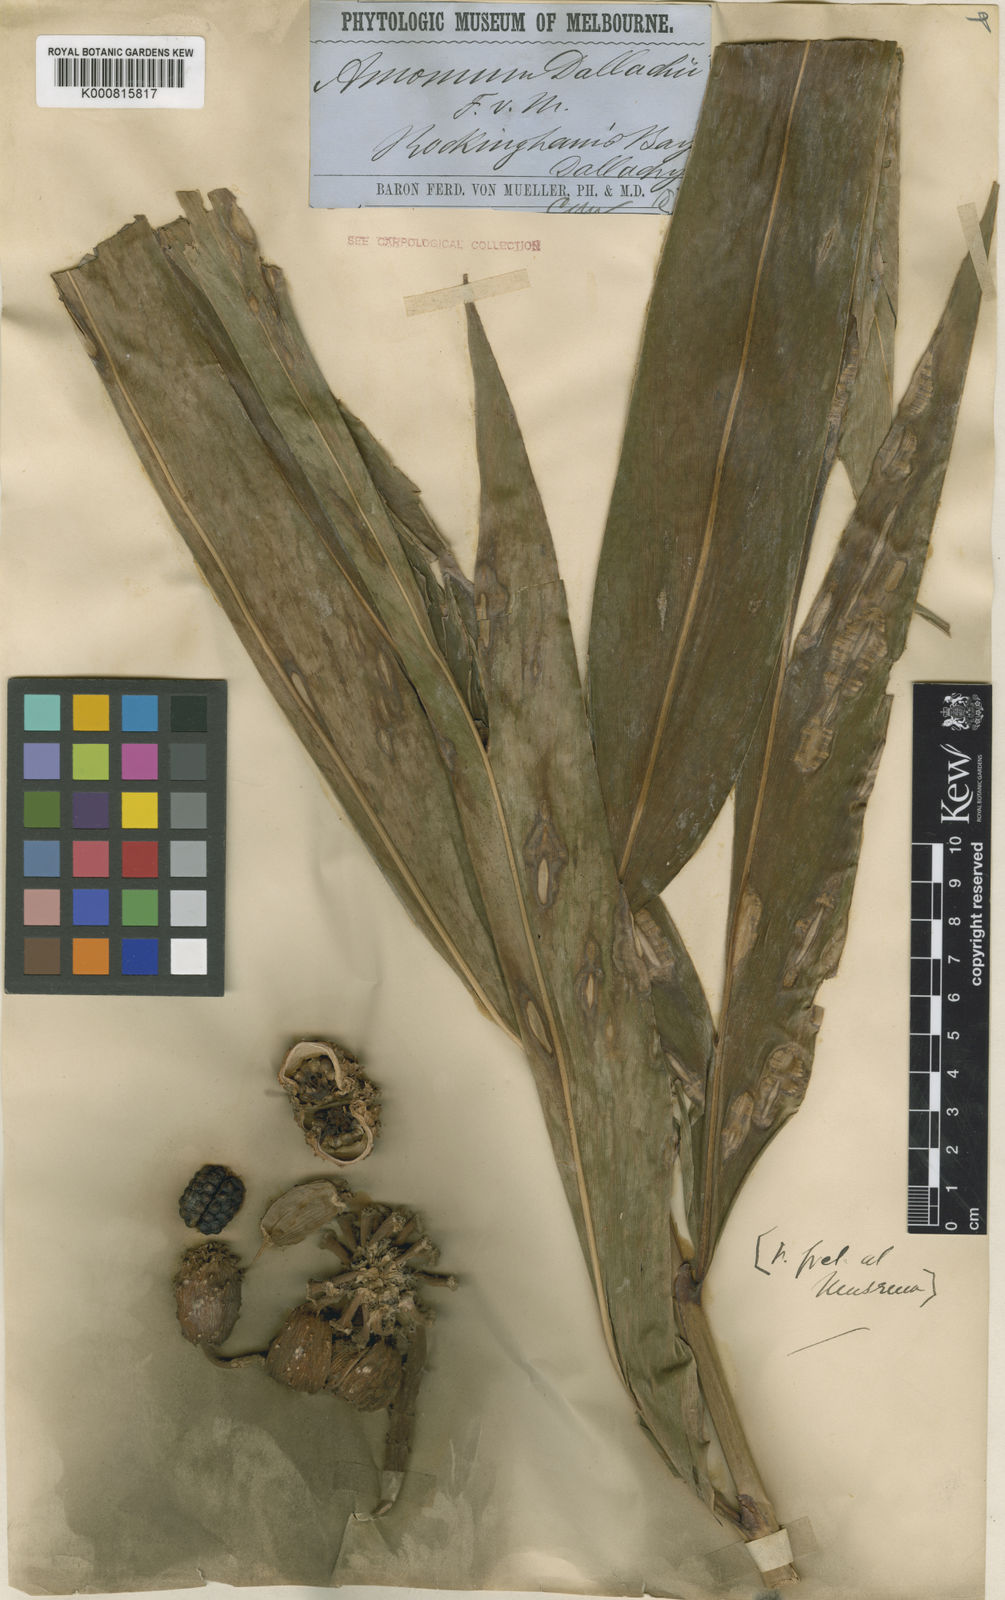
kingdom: Plantae
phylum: Tracheophyta
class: Liliopsida
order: Zingiberales
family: Zingiberaceae
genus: Meistera
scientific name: Meistera dallachyi
